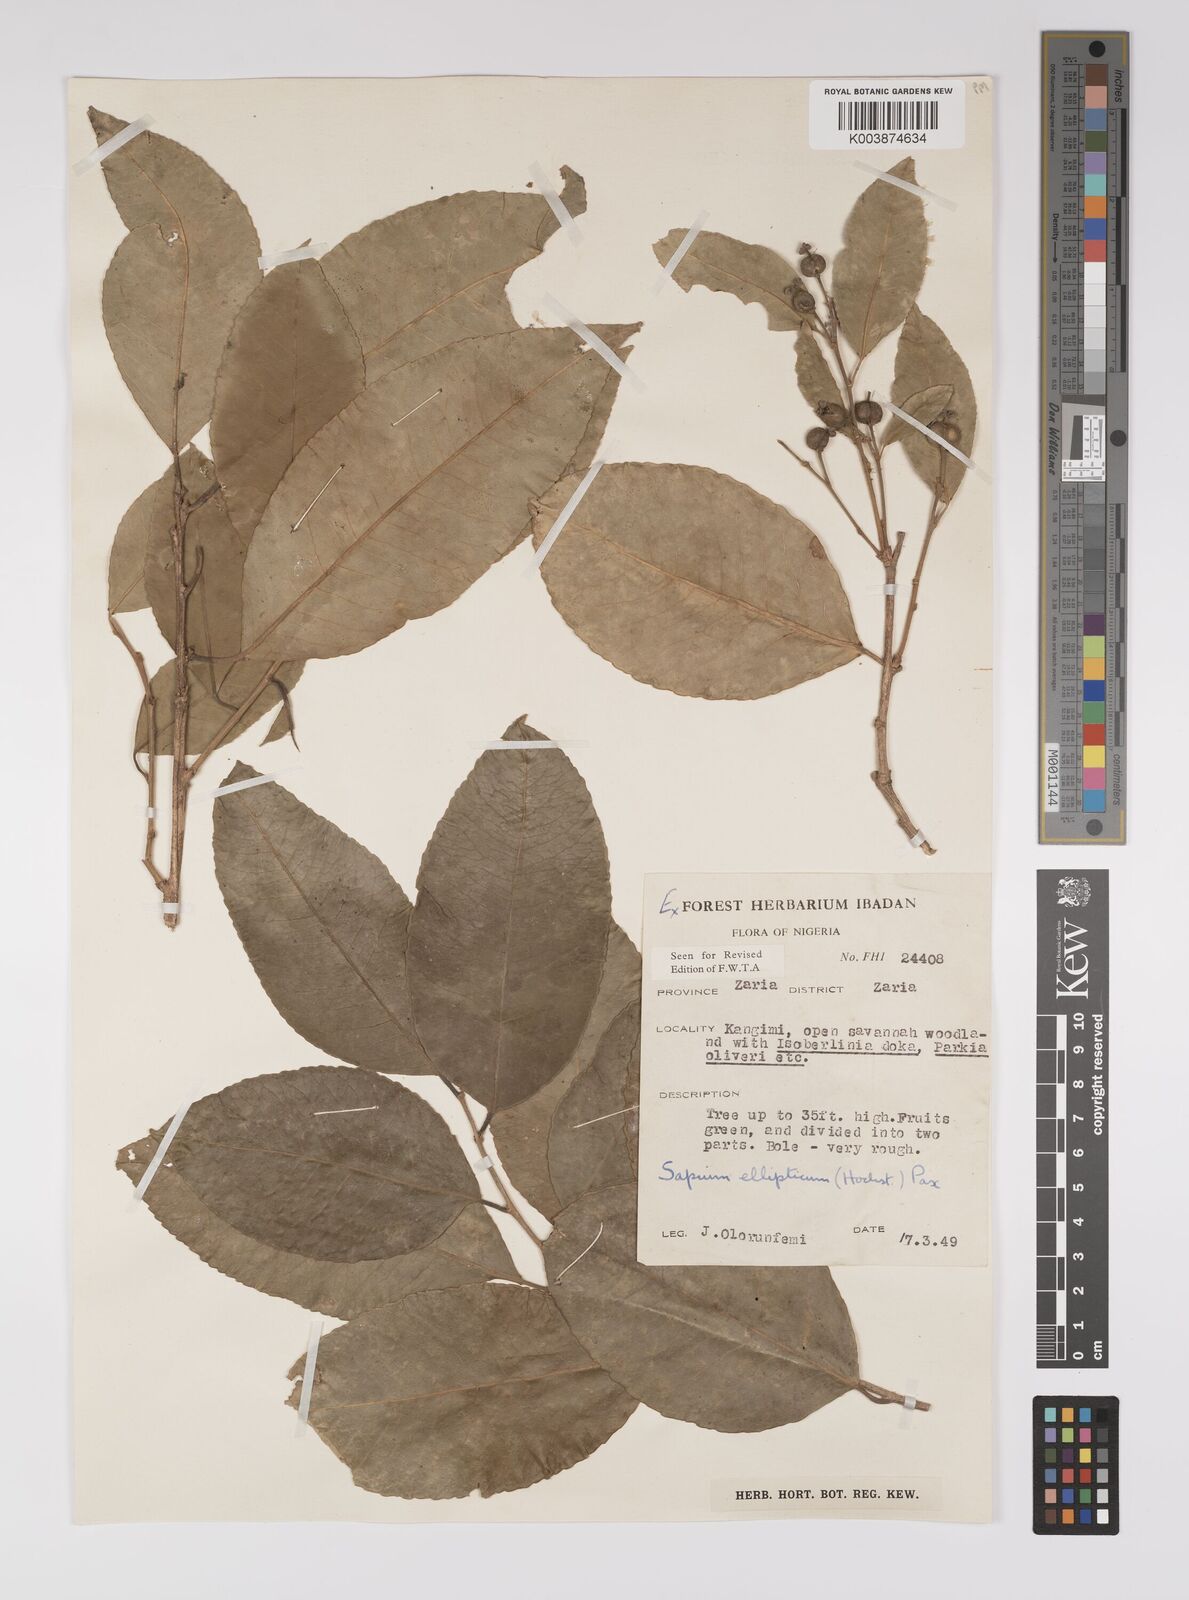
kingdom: Plantae
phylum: Tracheophyta
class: Magnoliopsida
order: Malpighiales
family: Euphorbiaceae
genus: Shirakiopsis
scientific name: Shirakiopsis elliptica
